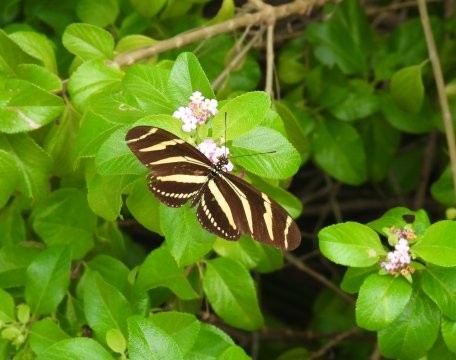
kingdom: Animalia
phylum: Arthropoda
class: Insecta
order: Lepidoptera
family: Nymphalidae
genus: Heliconius
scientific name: Heliconius charithonia
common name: Zebra Longwing
